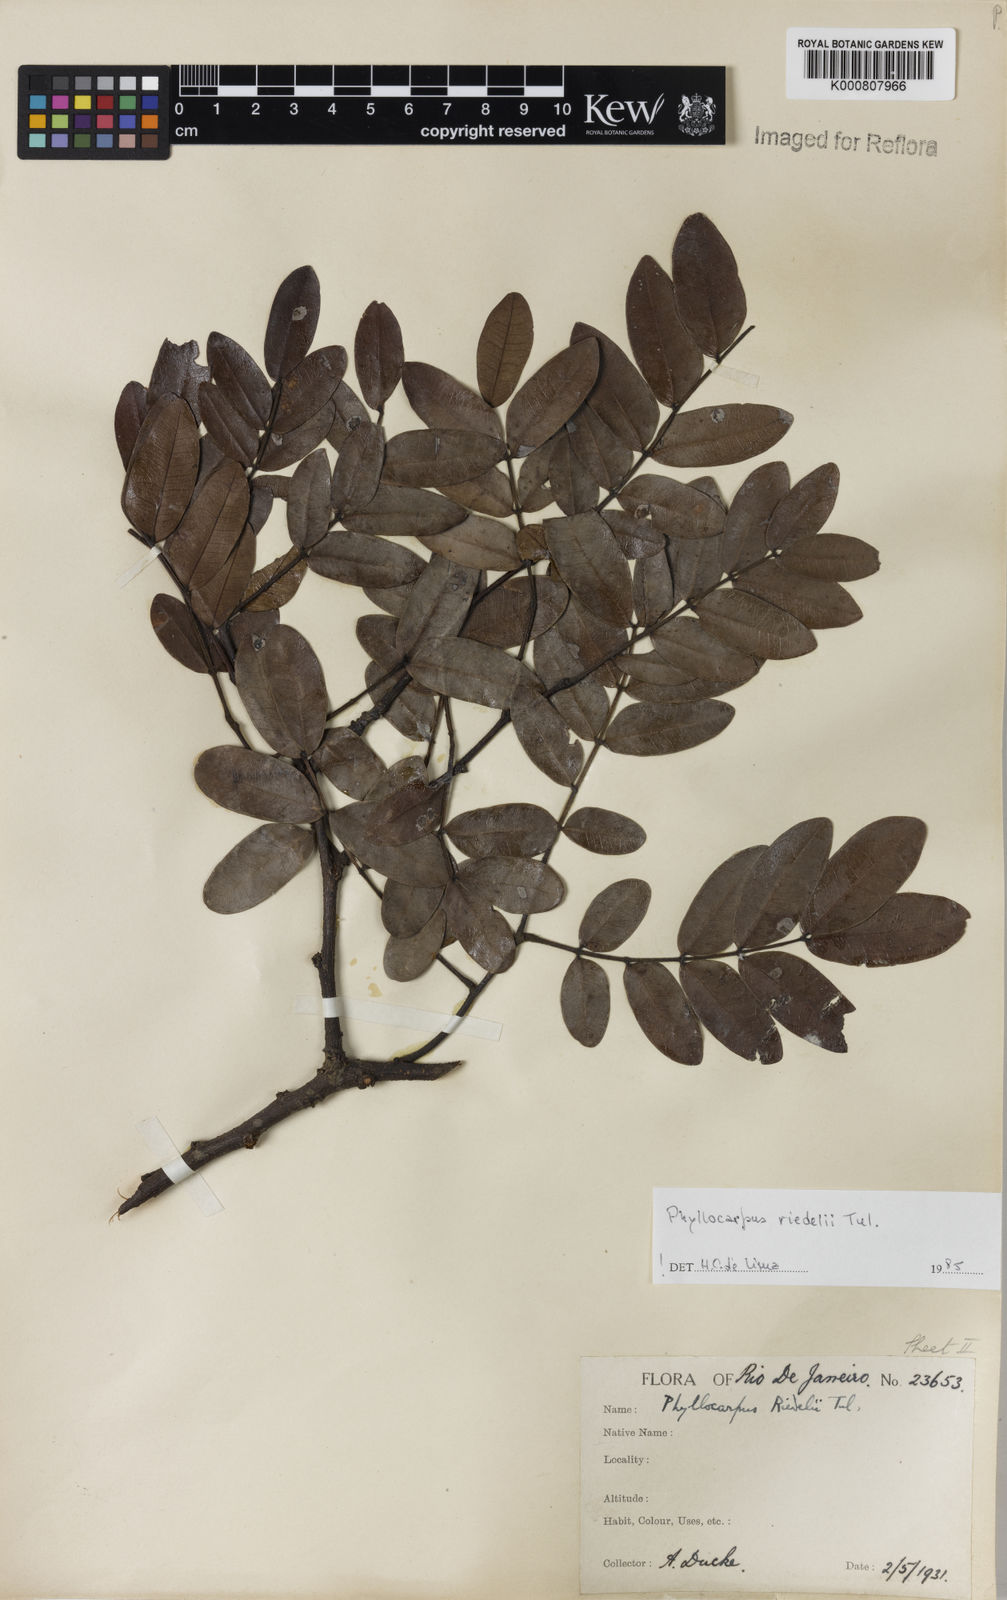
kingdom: Plantae
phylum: Tracheophyta
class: Magnoliopsida
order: Fabales
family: Fabaceae
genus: Barnebydendron
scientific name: Barnebydendron riedelii
